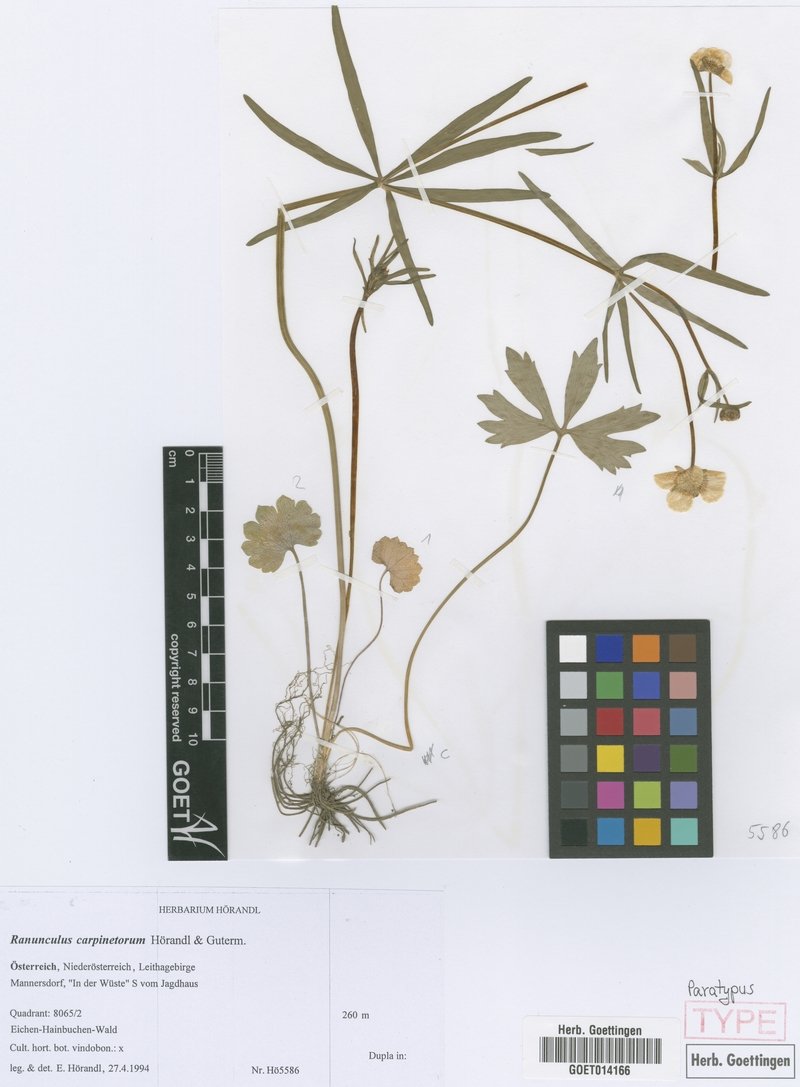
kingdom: Plantae
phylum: Tracheophyta
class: Magnoliopsida
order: Ranunculales
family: Ranunculaceae
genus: Ranunculus
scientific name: Ranunculus carpinetorum
